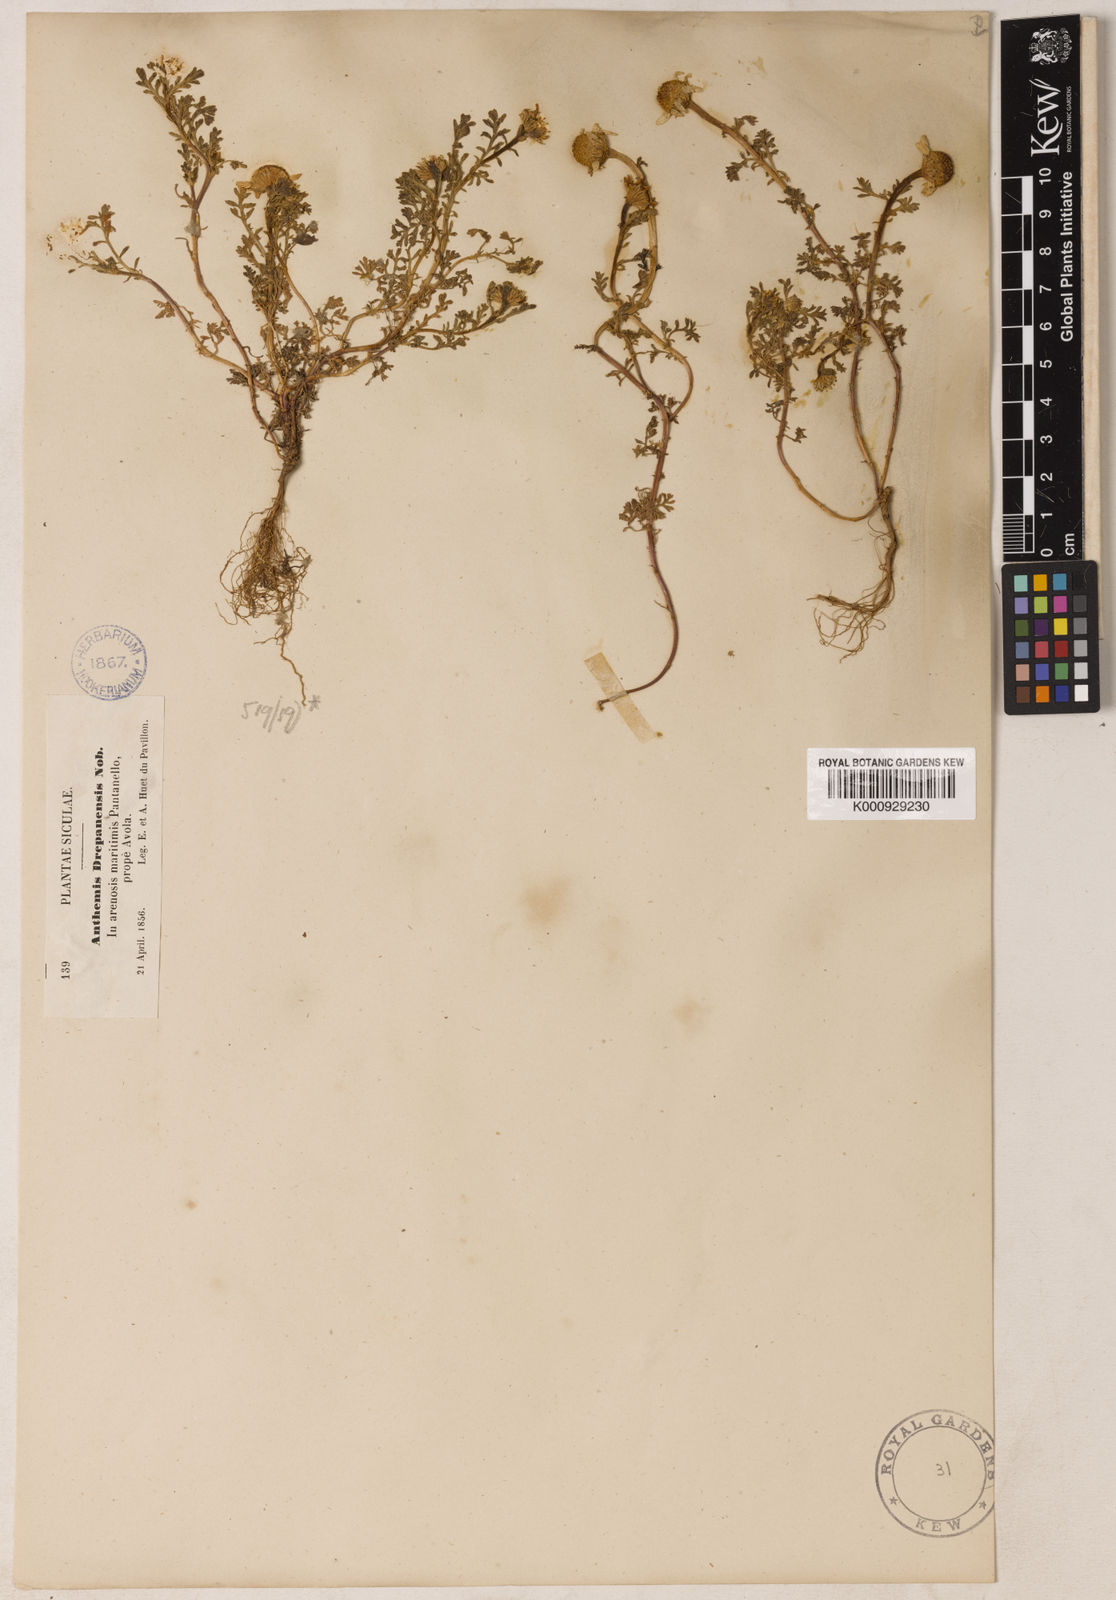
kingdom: Plantae
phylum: Tracheophyta
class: Magnoliopsida
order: Asterales
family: Asteraceae
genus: Anthemis
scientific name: Anthemis maritima
